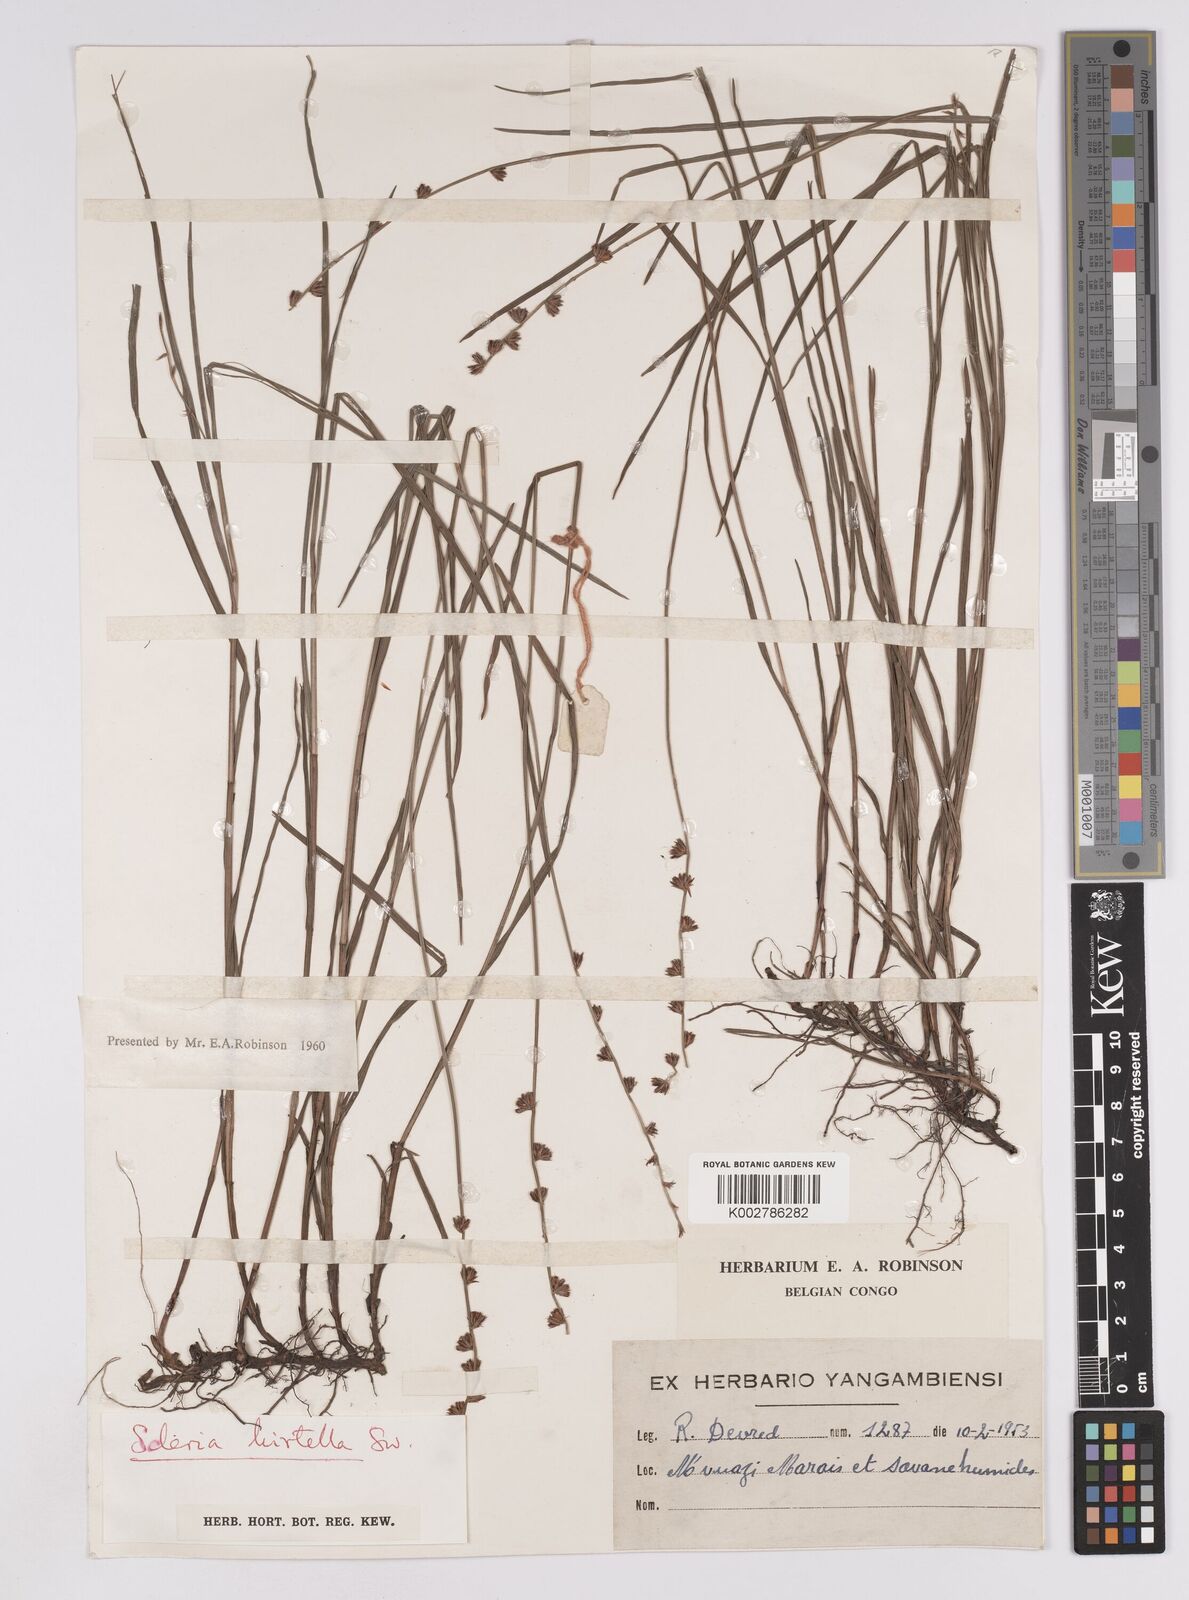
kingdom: Plantae
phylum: Tracheophyta
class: Liliopsida
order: Poales
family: Cyperaceae
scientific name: Cyperaceae
